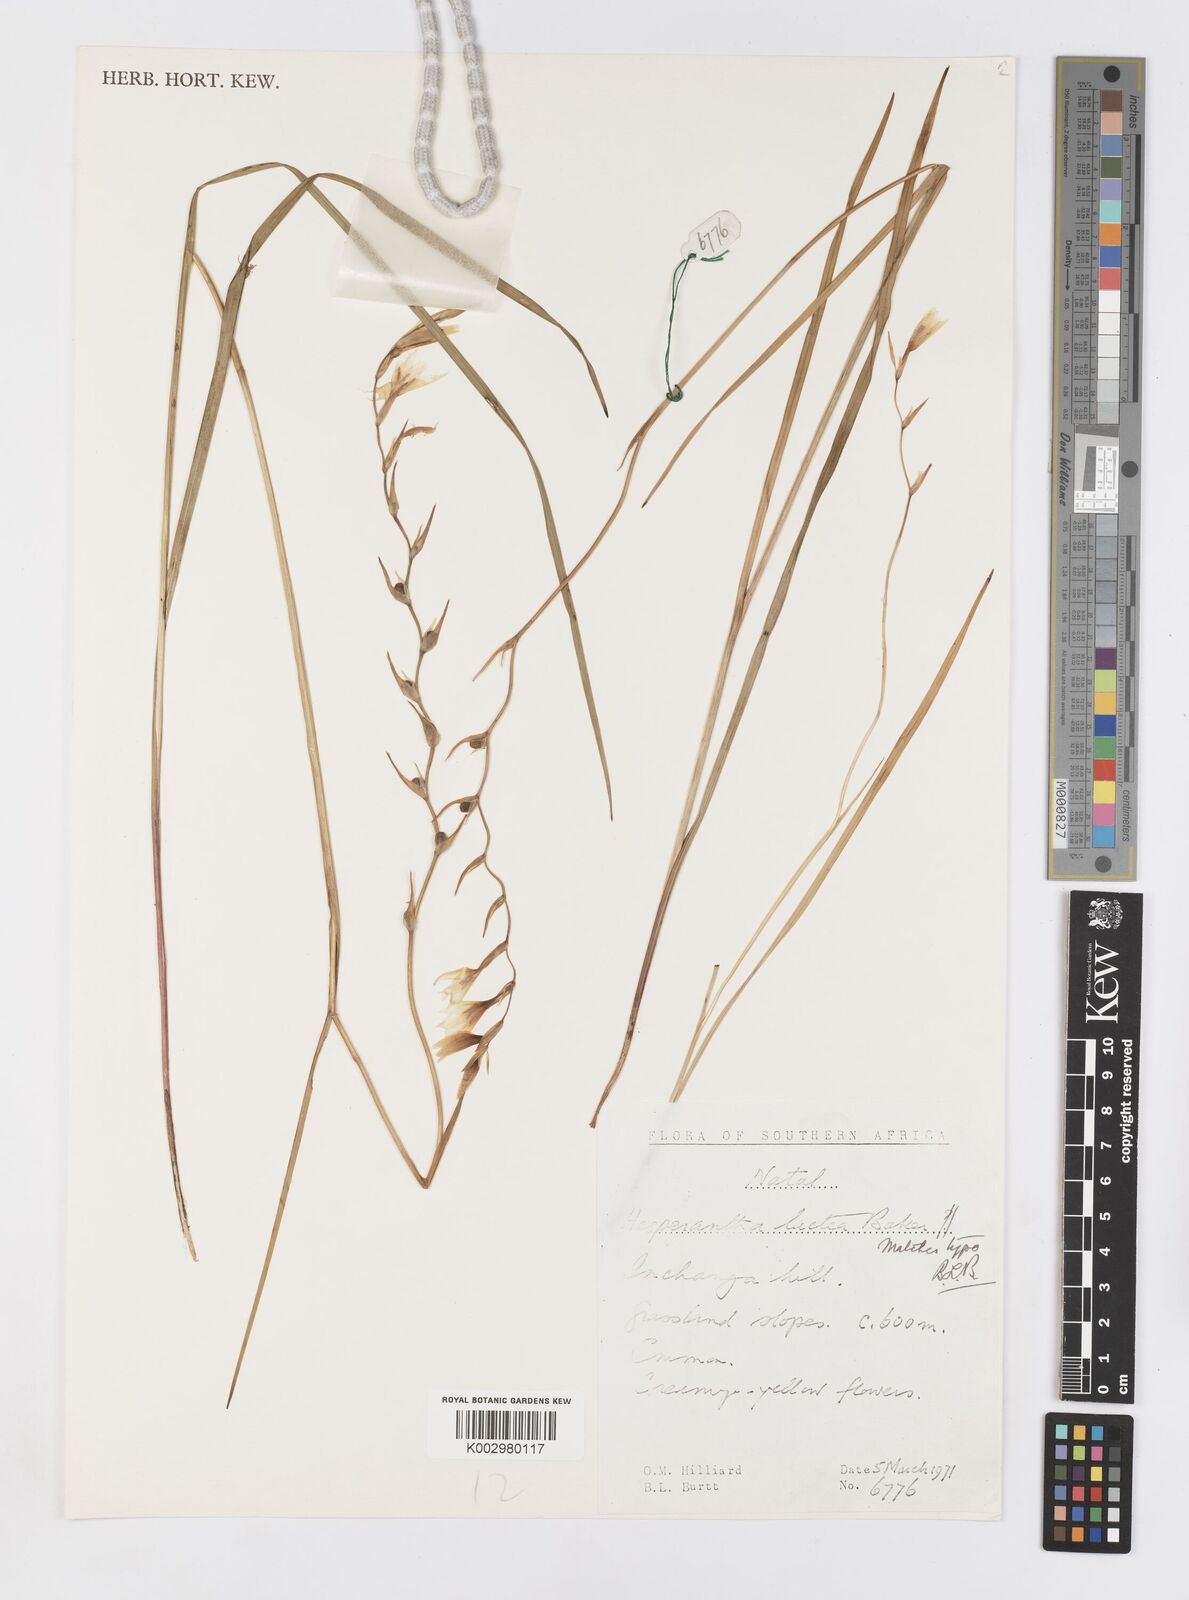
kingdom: Plantae
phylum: Tracheophyta
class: Liliopsida
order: Asparagales
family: Iridaceae
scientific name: Iridaceae
